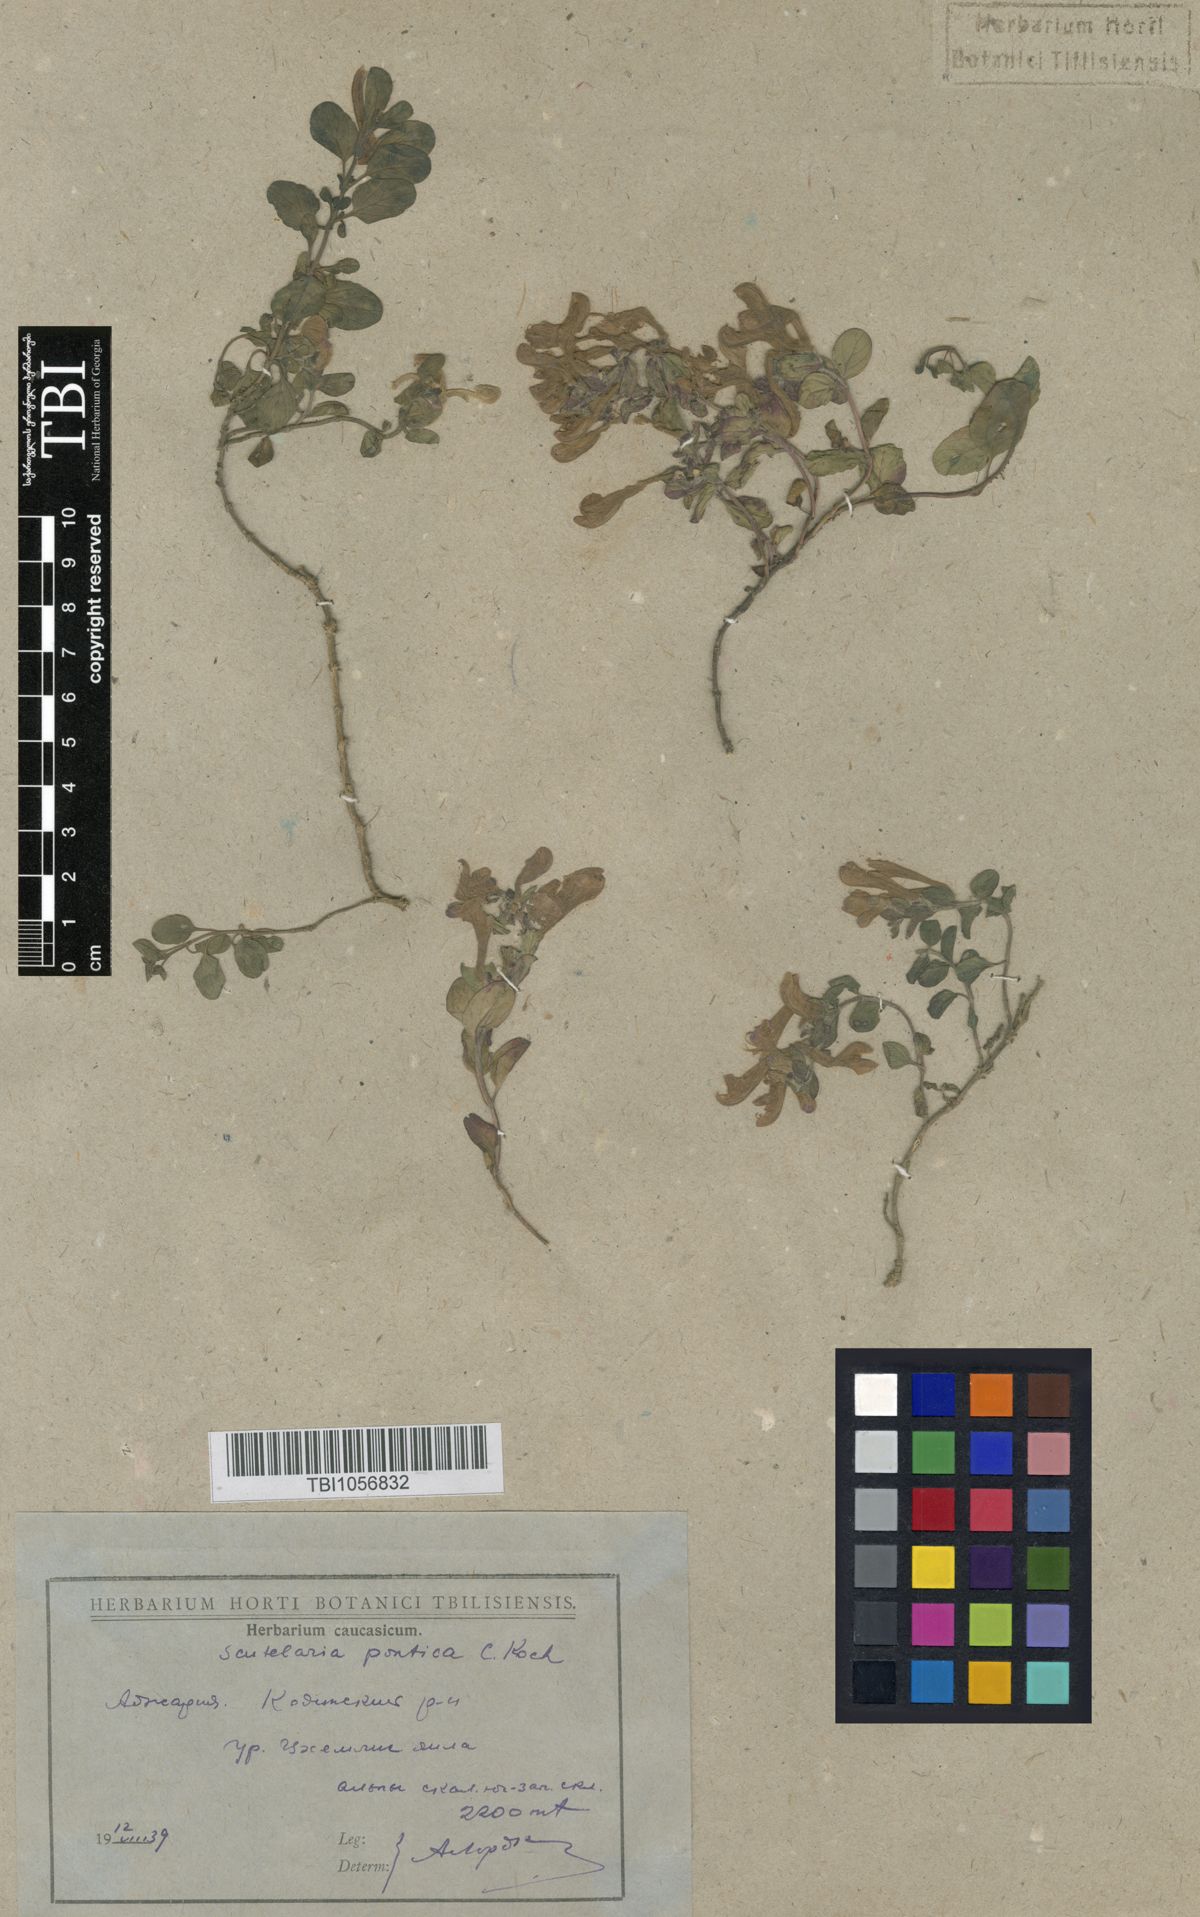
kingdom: Plantae
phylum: Tracheophyta
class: Magnoliopsida
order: Lamiales
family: Lamiaceae
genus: Scutellaria
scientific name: Scutellaria pontica
